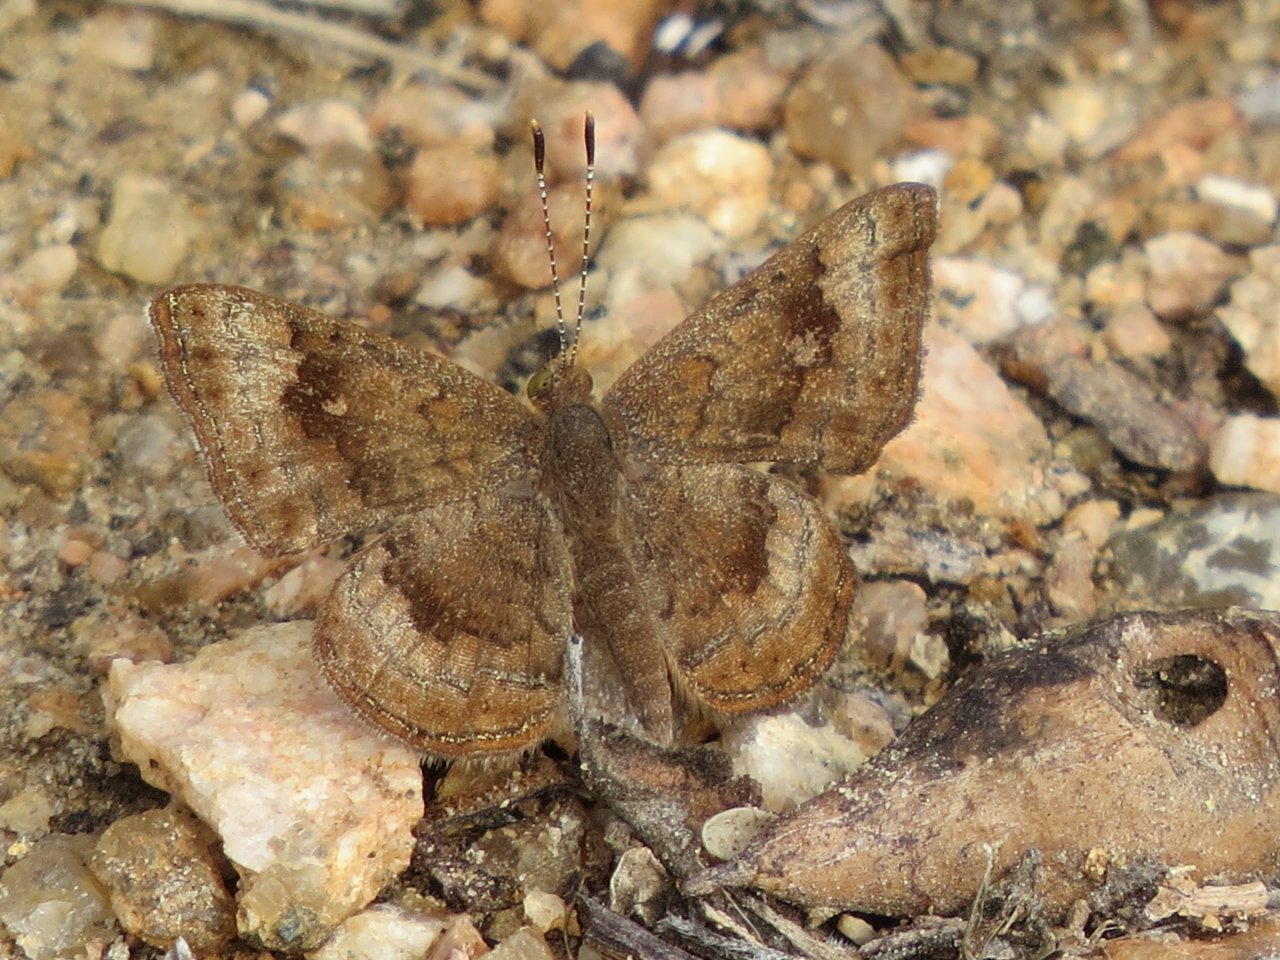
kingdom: Animalia
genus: Calephelis
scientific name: Calephelis nemesis
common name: Fatal Metalmark
